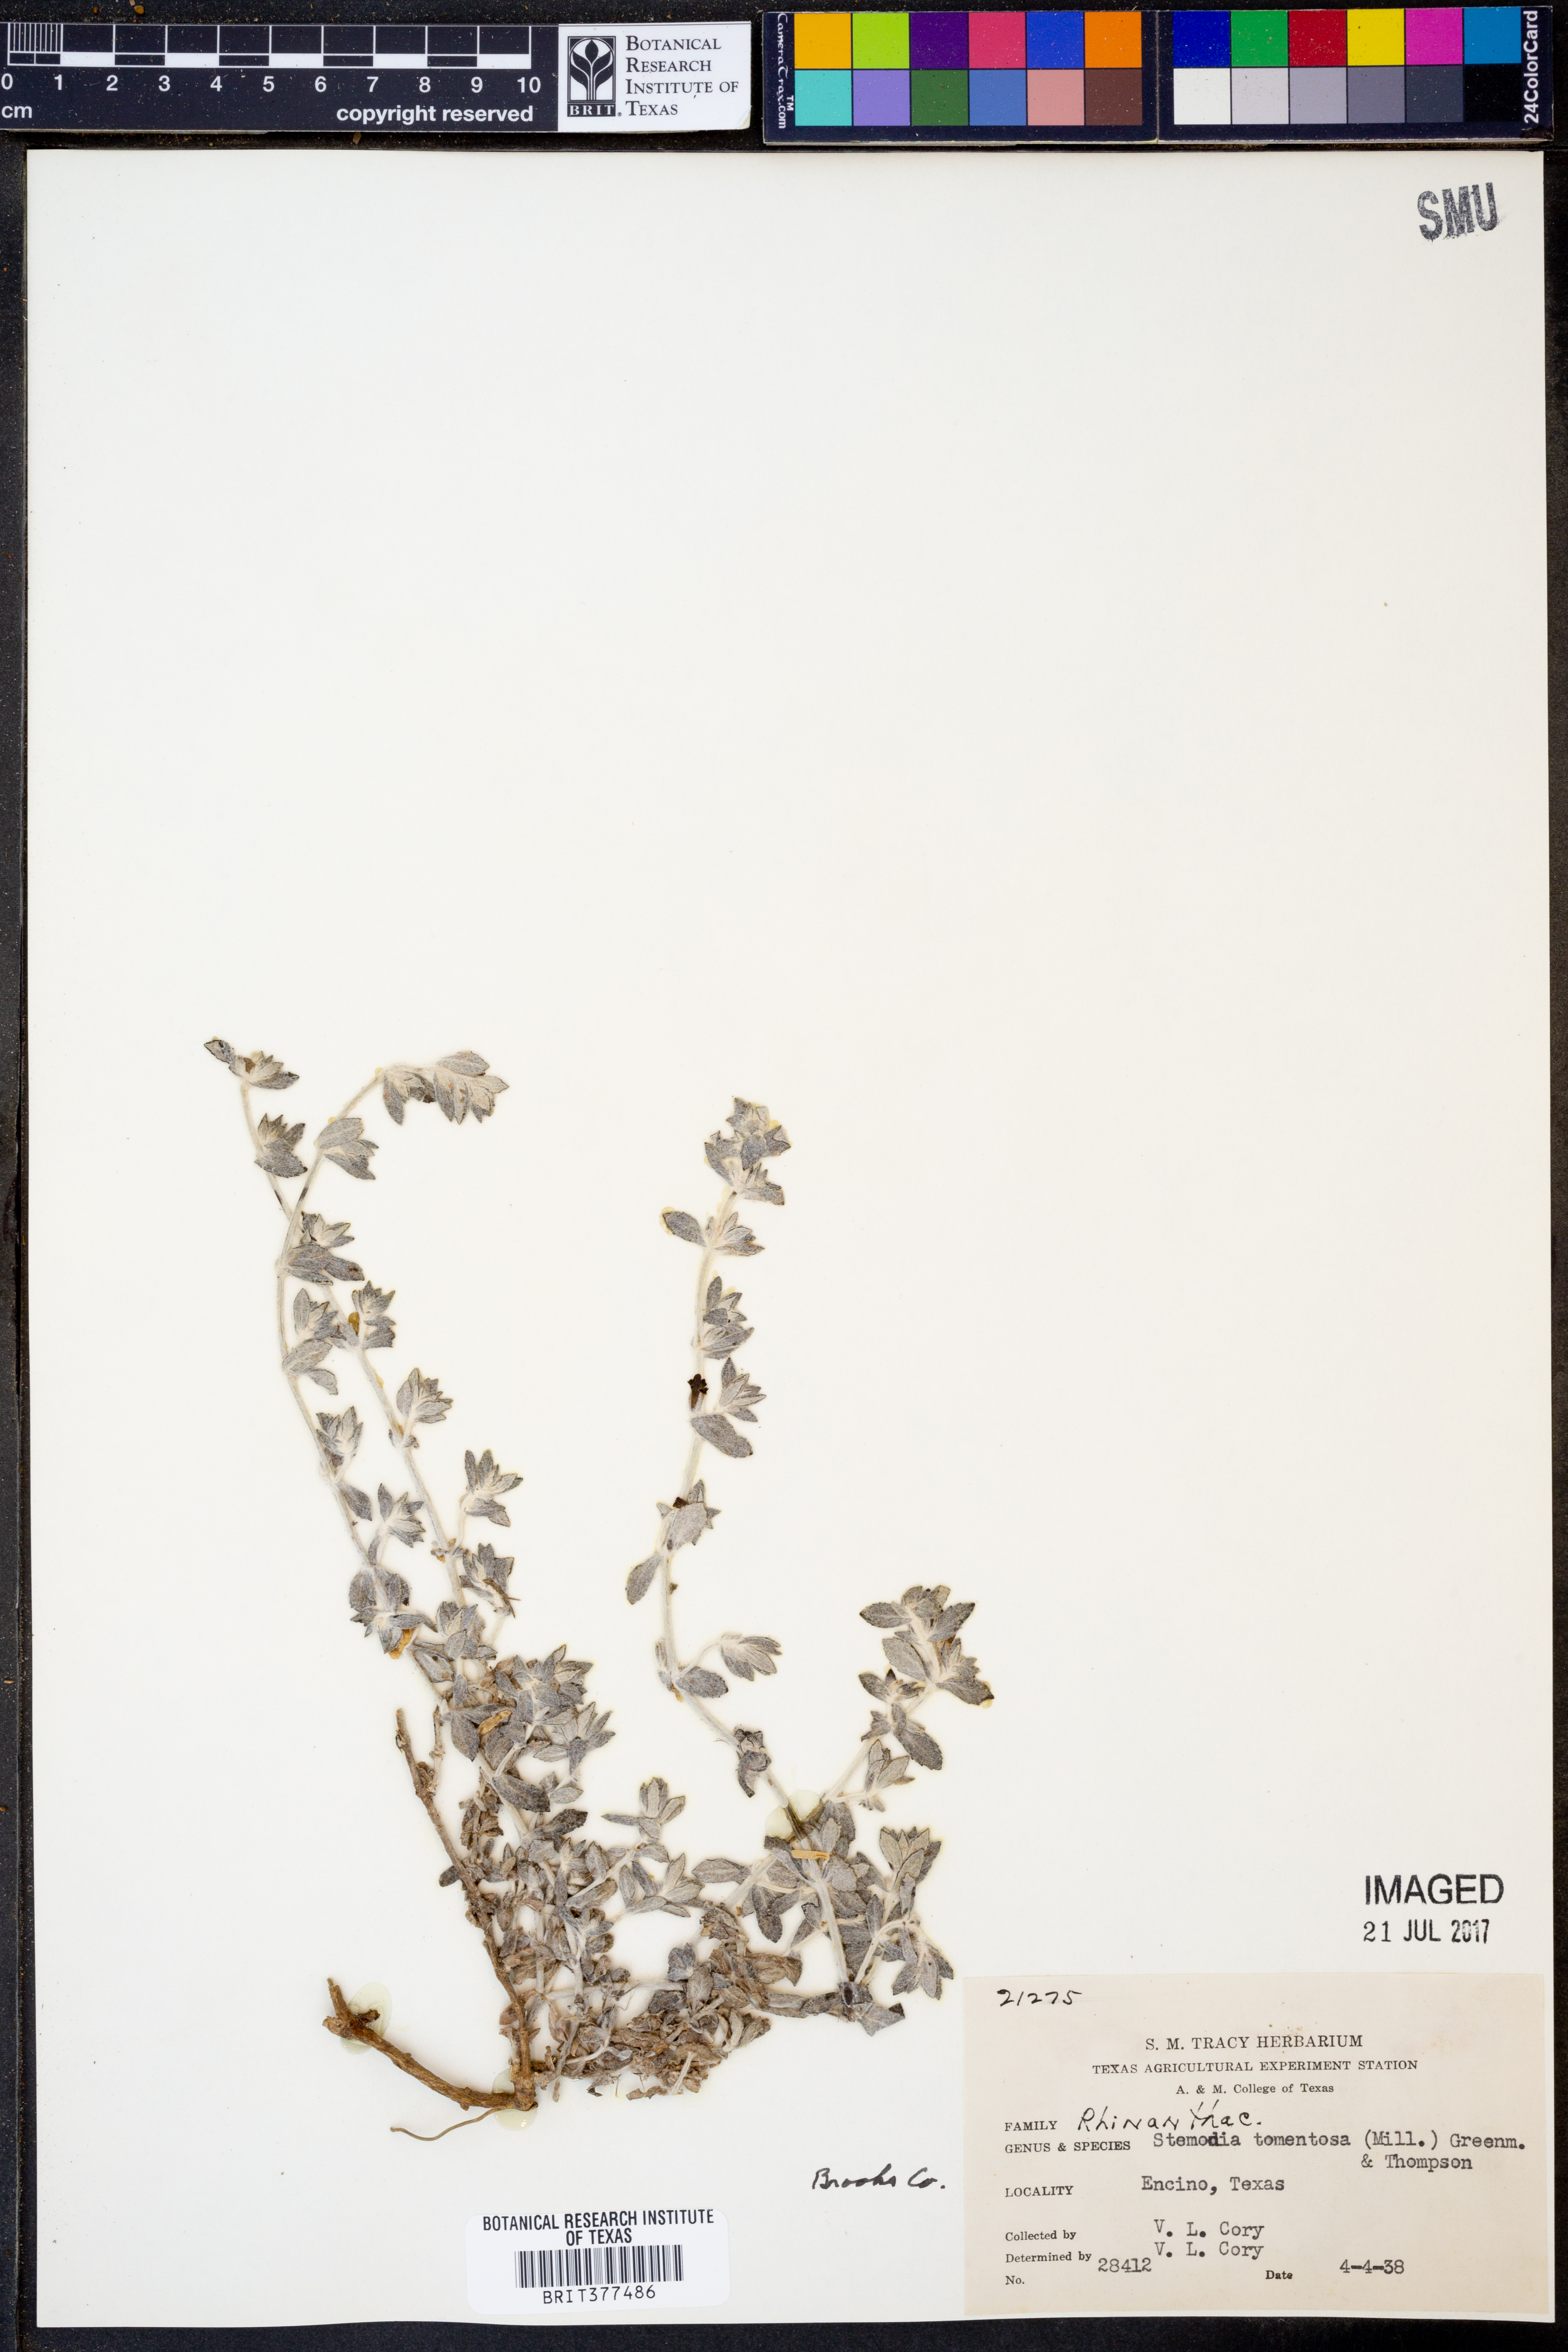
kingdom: Plantae
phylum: Tracheophyta
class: Magnoliopsida
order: Lamiales
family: Plantaginaceae
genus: Stemodia
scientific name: Stemodia lanata
